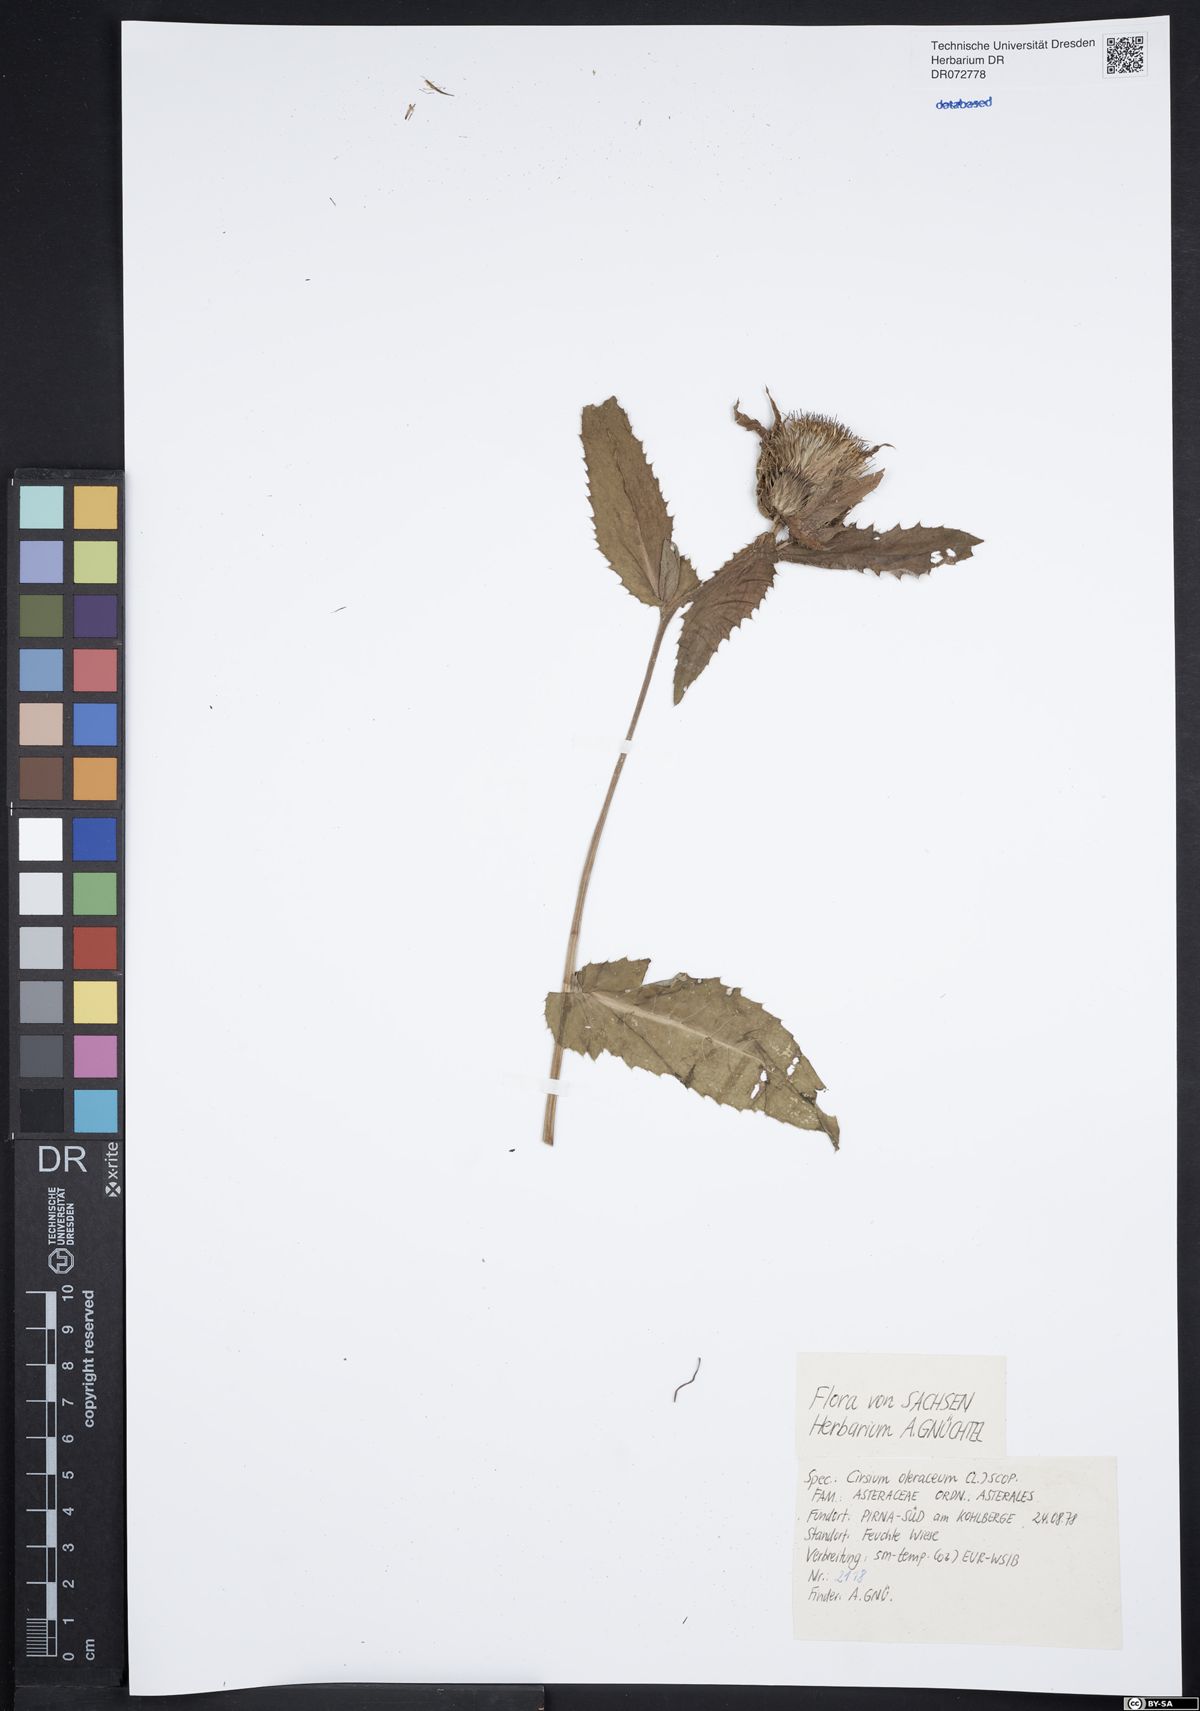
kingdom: Plantae
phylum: Tracheophyta
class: Magnoliopsida
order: Asterales
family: Asteraceae
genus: Cirsium
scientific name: Cirsium oleraceum
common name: Cabbage thistle
